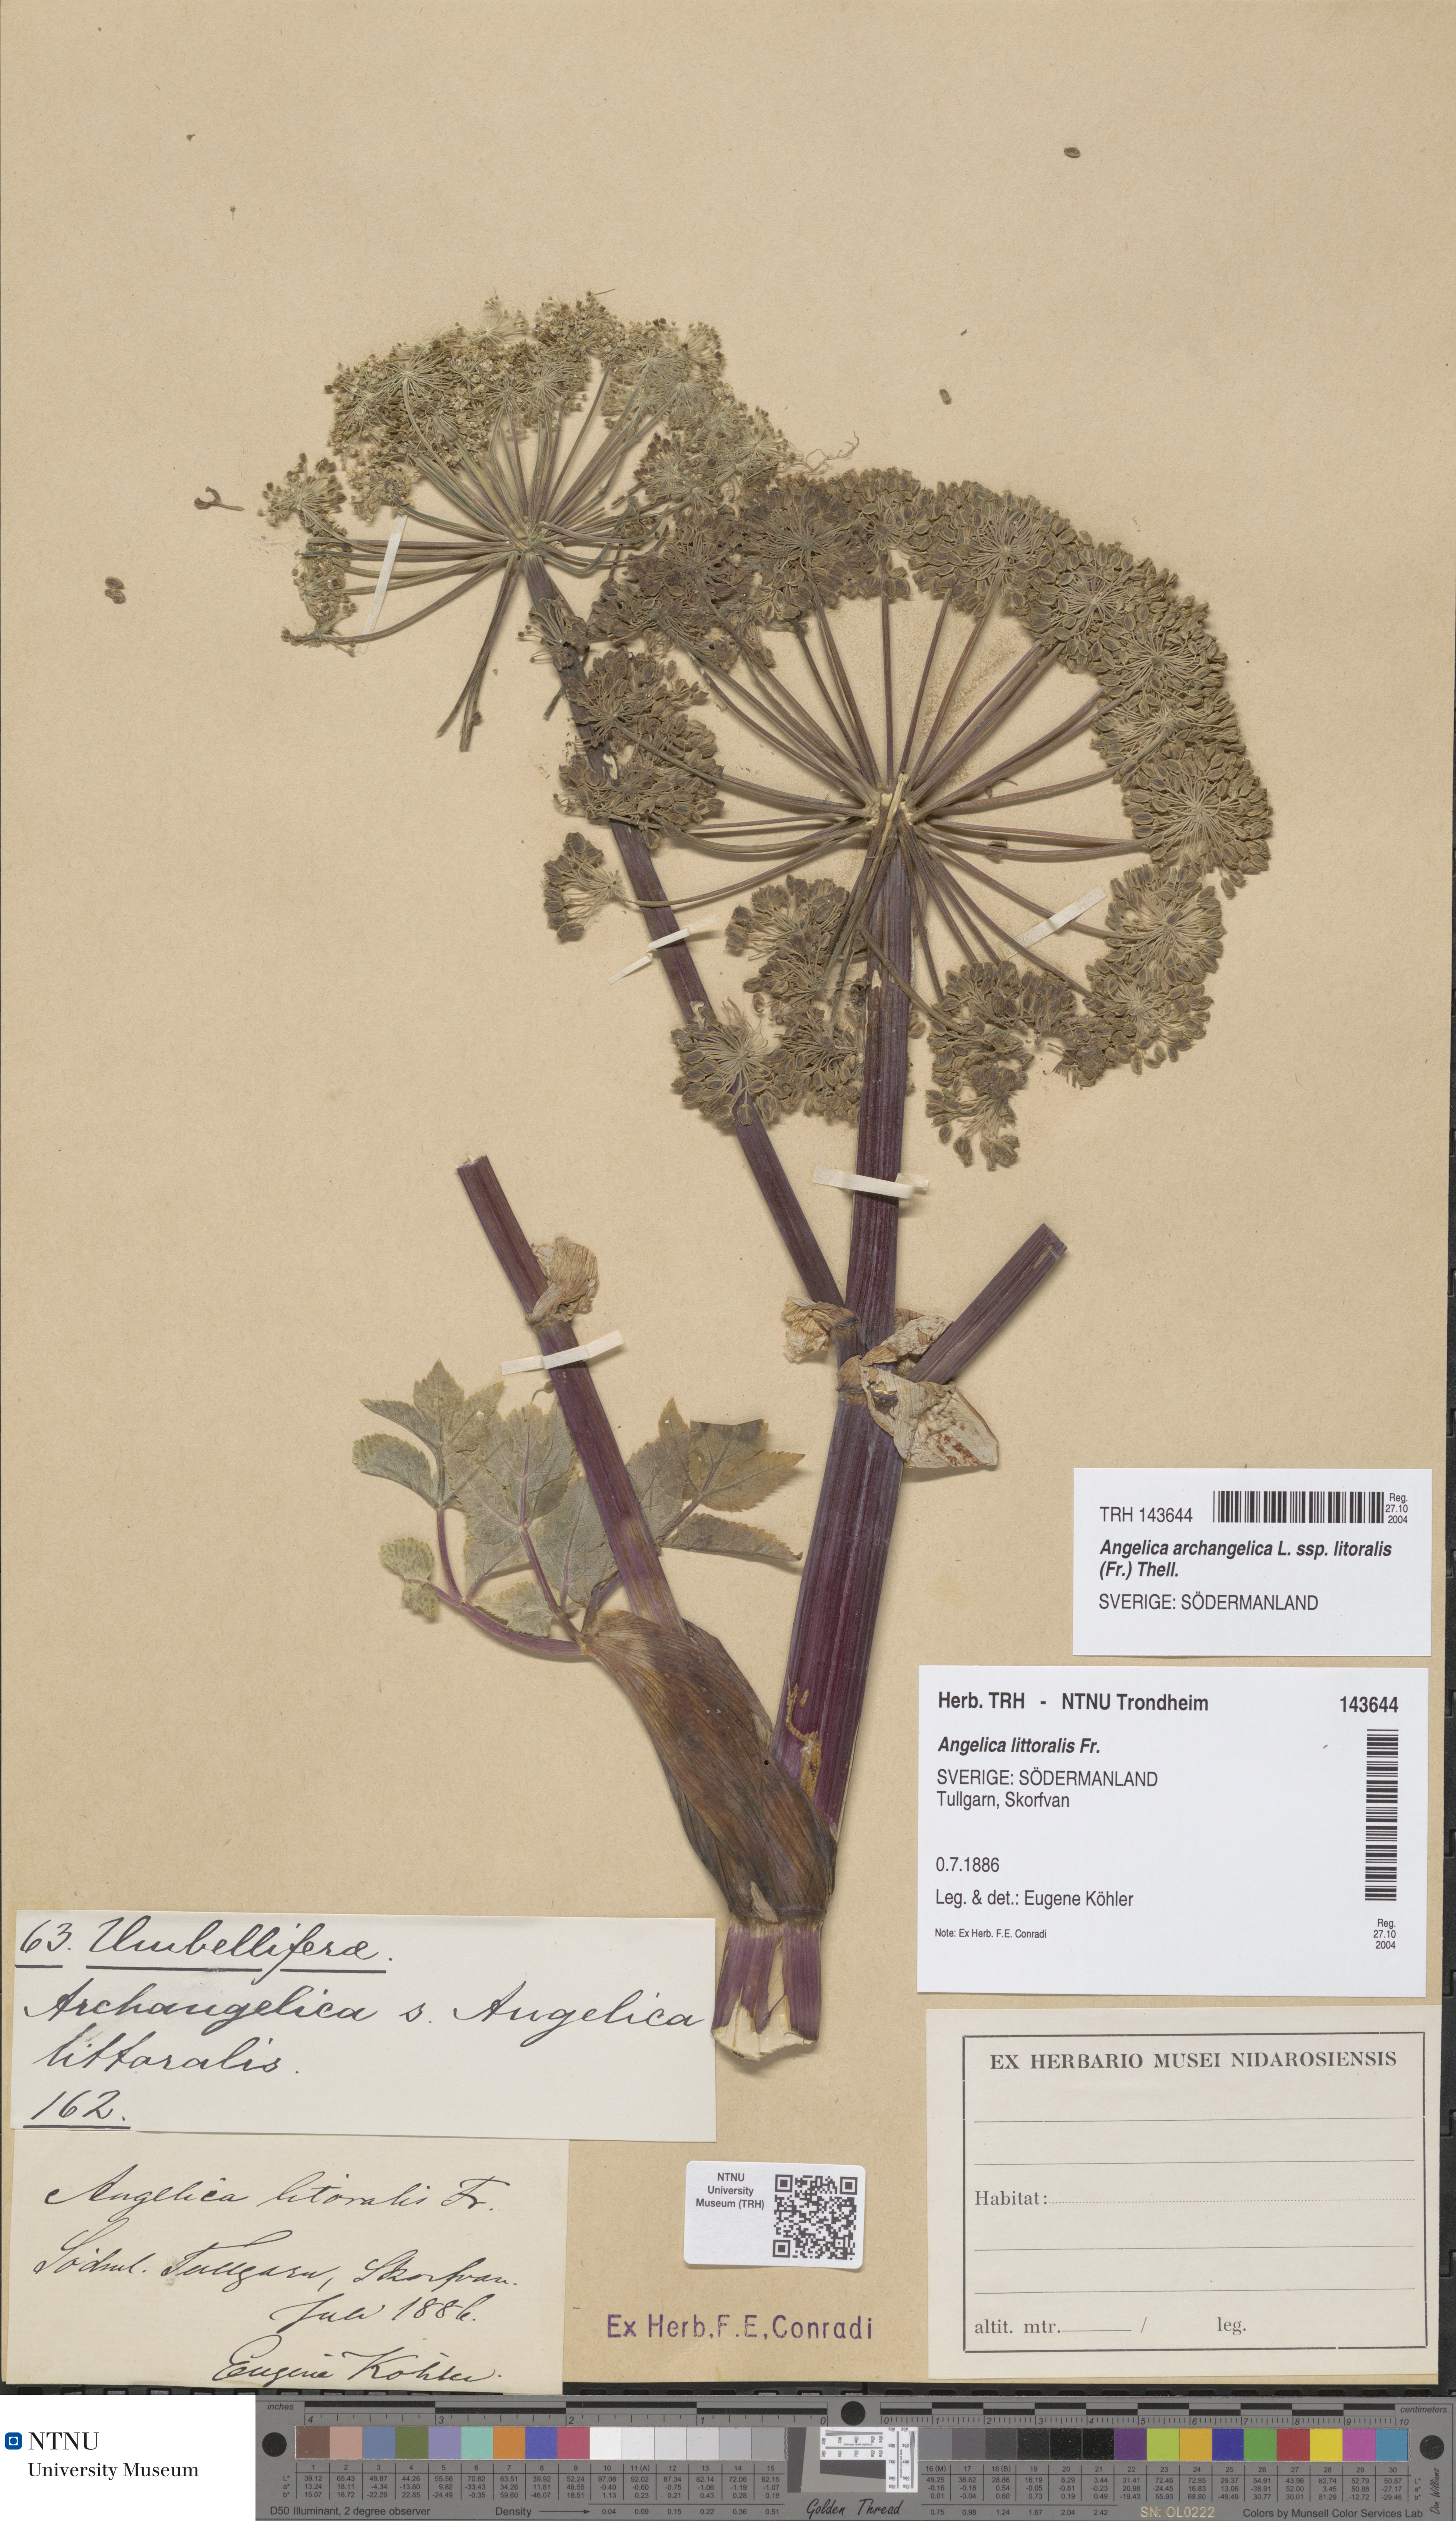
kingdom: Plantae
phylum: Tracheophyta
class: Magnoliopsida
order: Apiales
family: Apiaceae
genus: Angelica
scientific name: Angelica archangelica
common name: Garden angelica
